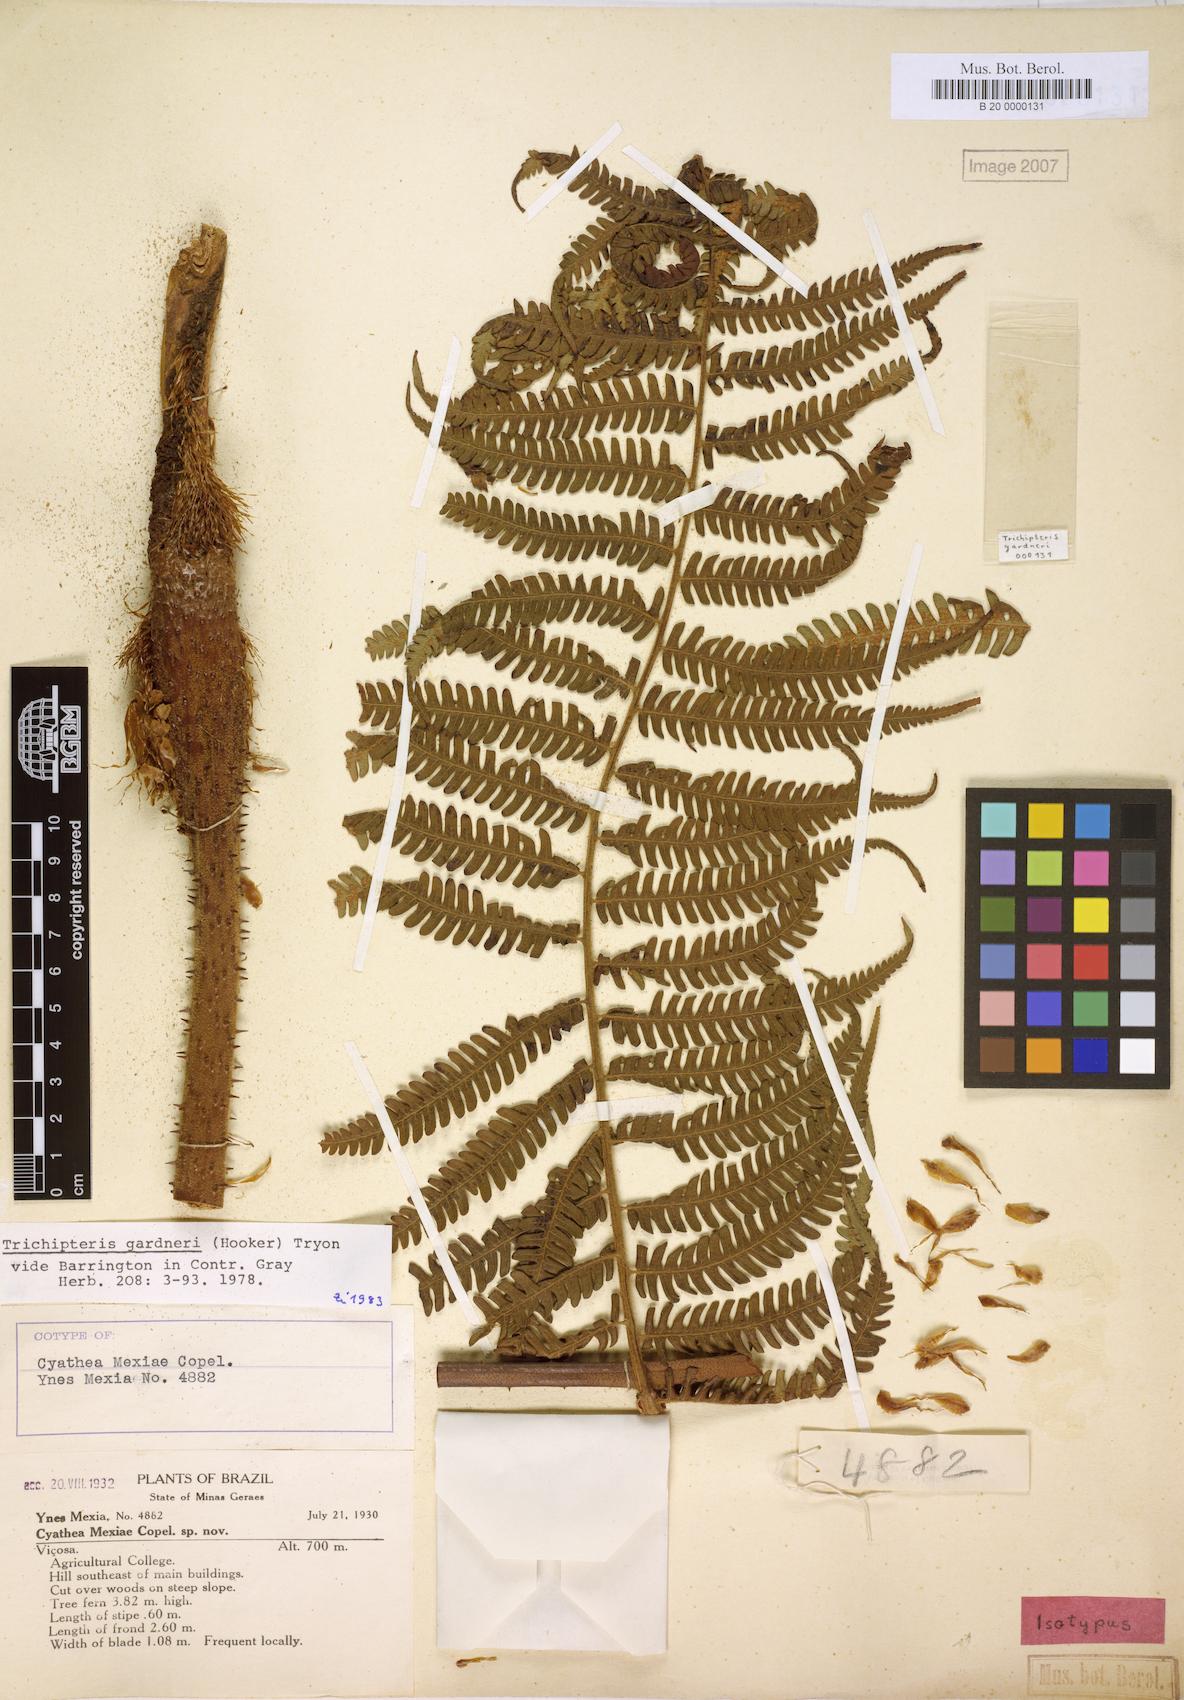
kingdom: Plantae
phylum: Tracheophyta
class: Polypodiopsida
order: Cyatheales
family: Cyatheaceae
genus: Cyathea
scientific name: Cyathea mexiae
